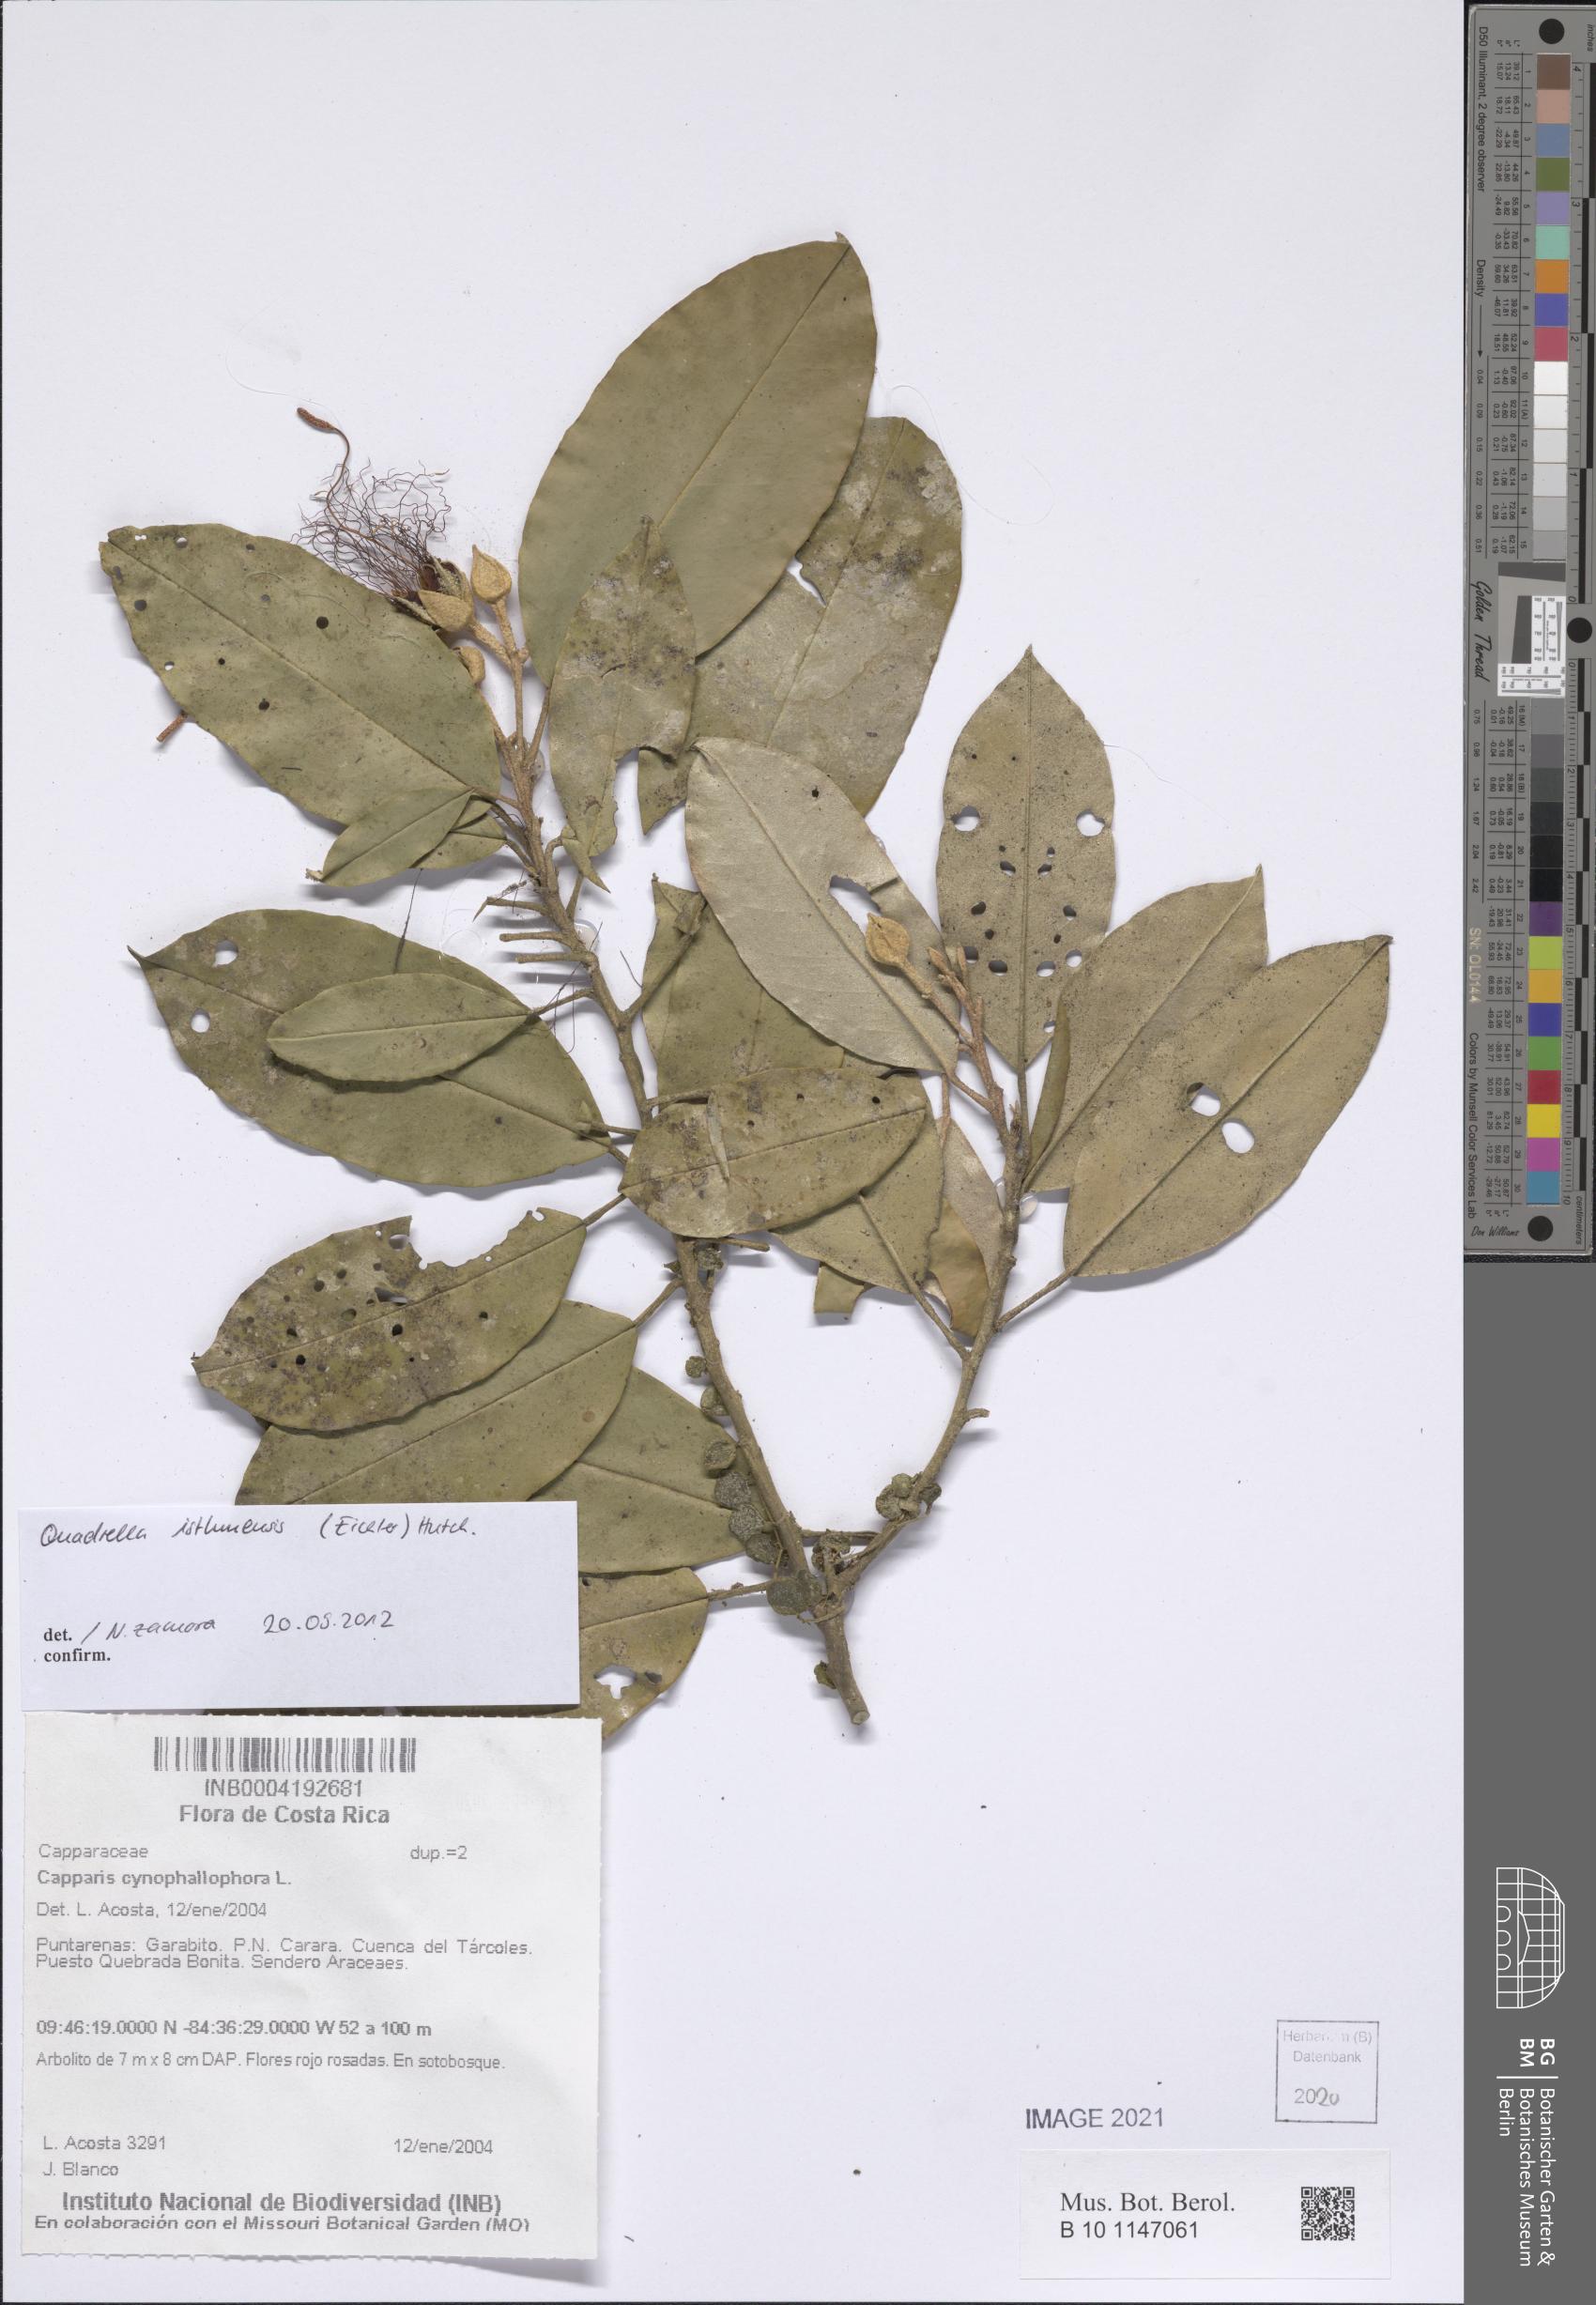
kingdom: Plantae
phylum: Tracheophyta
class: Magnoliopsida
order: Brassicales
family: Capparaceae
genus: Quadrella
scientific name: Quadrella isthmensis
